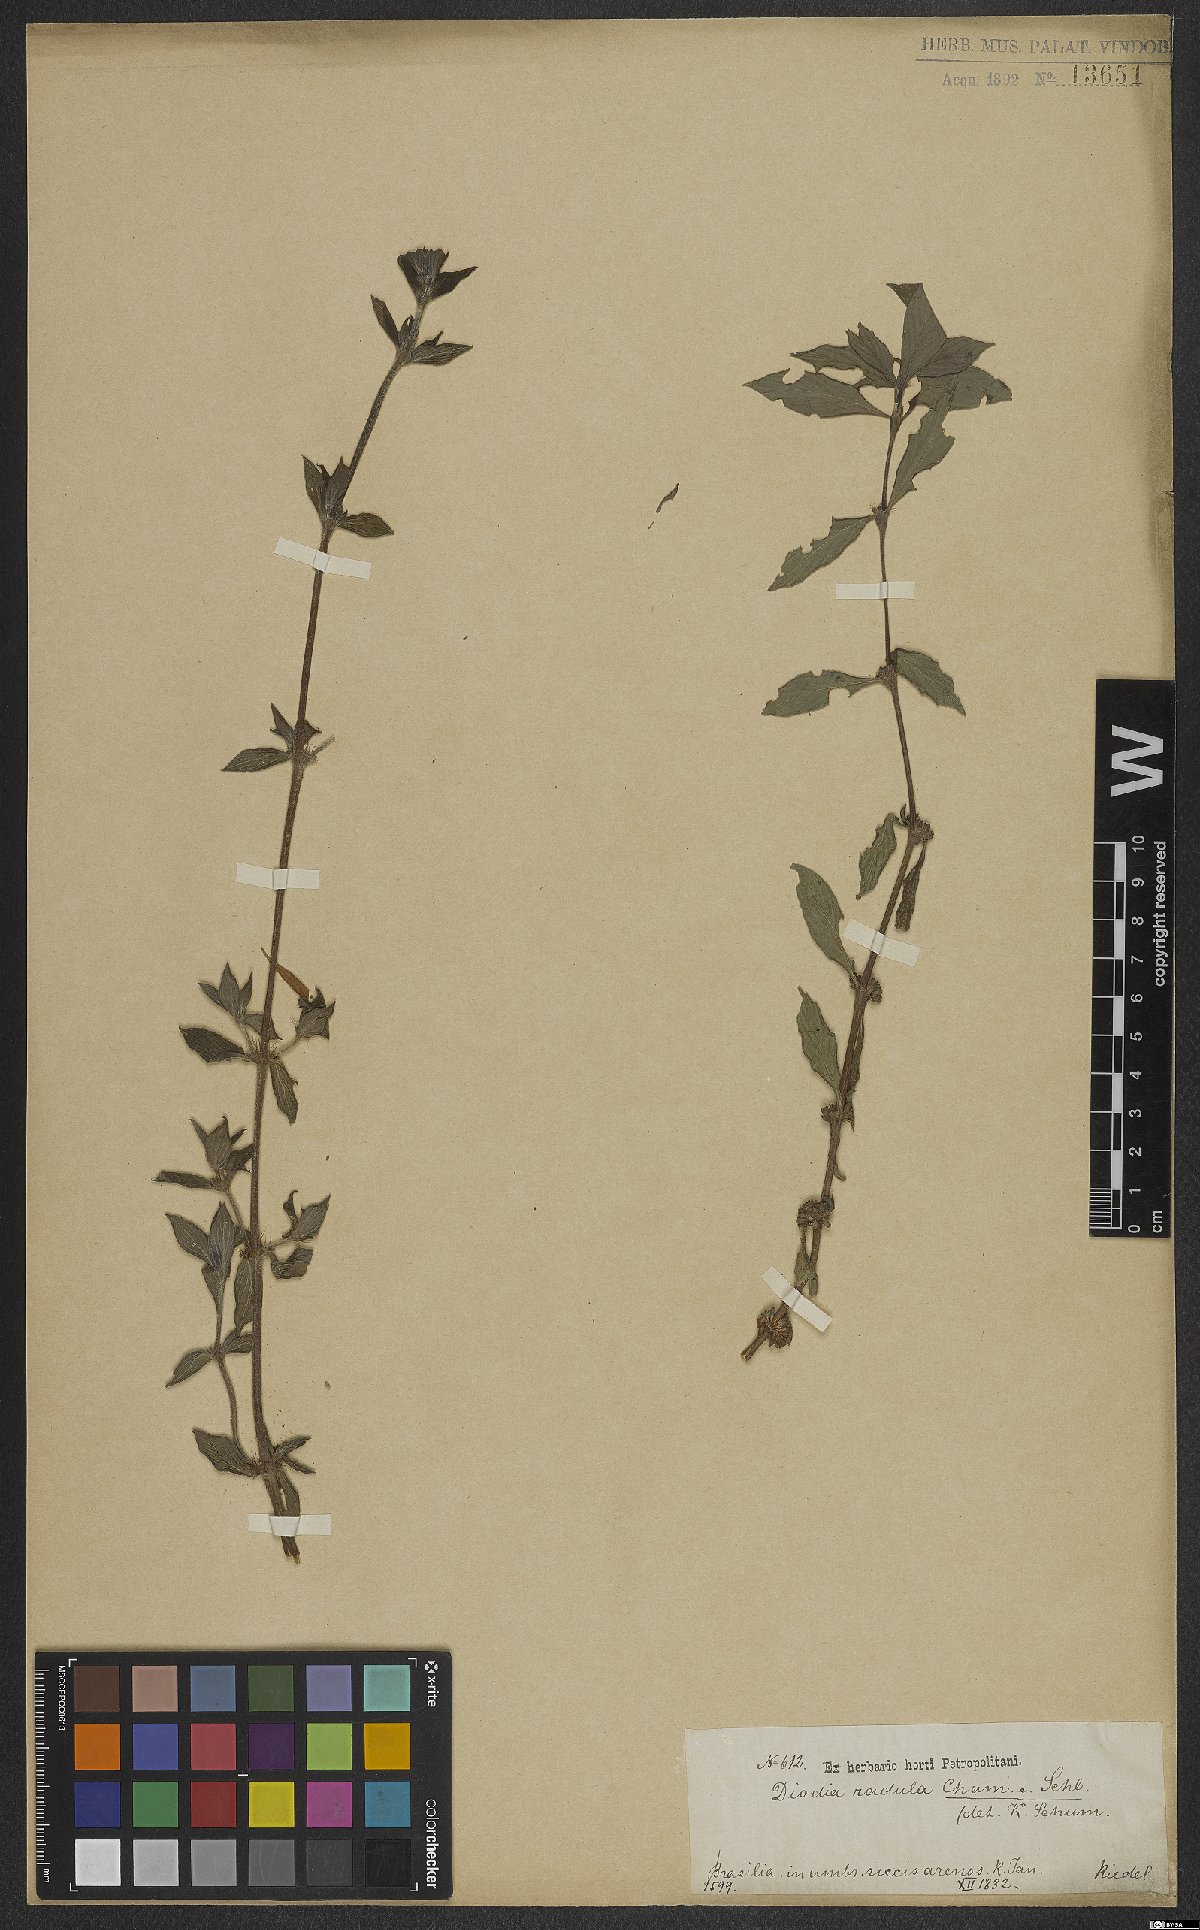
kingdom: Plantae
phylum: Tracheophyta
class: Magnoliopsida
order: Gentianales
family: Rubiaceae
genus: Hexasepalum
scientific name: Hexasepalum radulum
